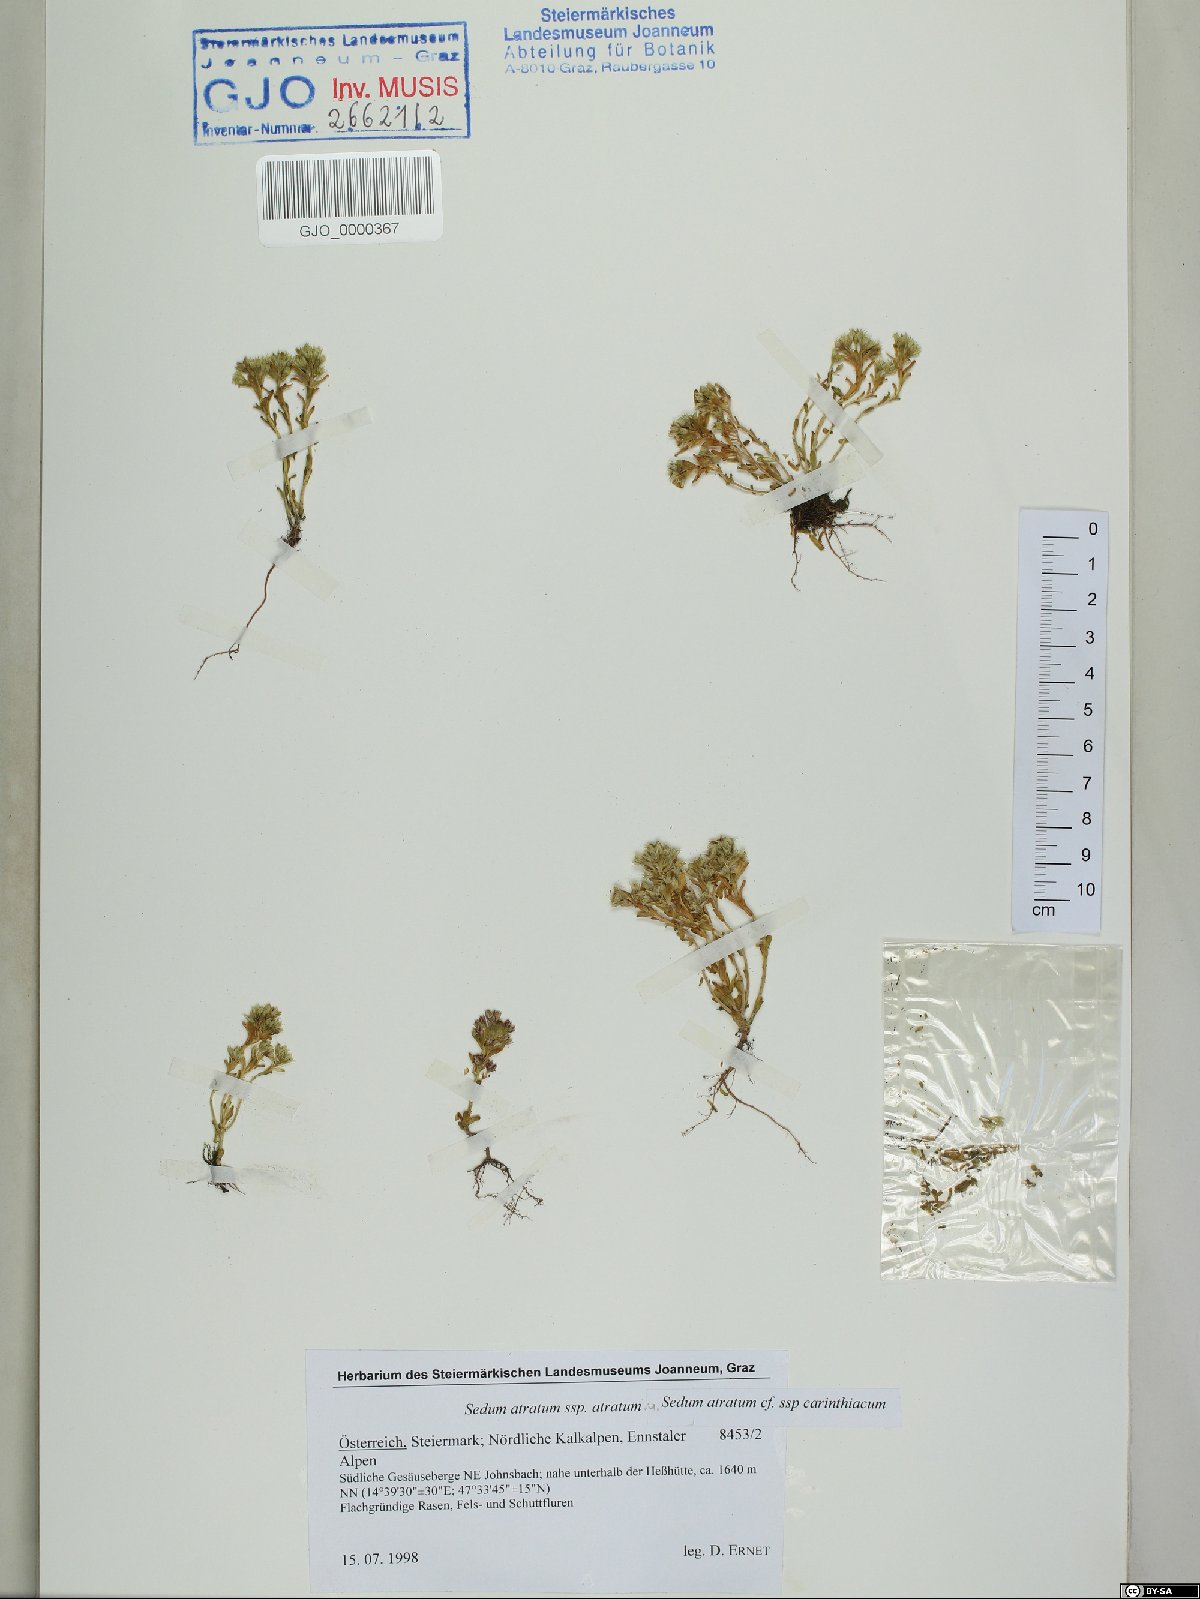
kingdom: Plantae
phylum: Tracheophyta
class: Magnoliopsida
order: Saxifragales
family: Crassulaceae
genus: Sedum
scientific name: Sedum atratum
